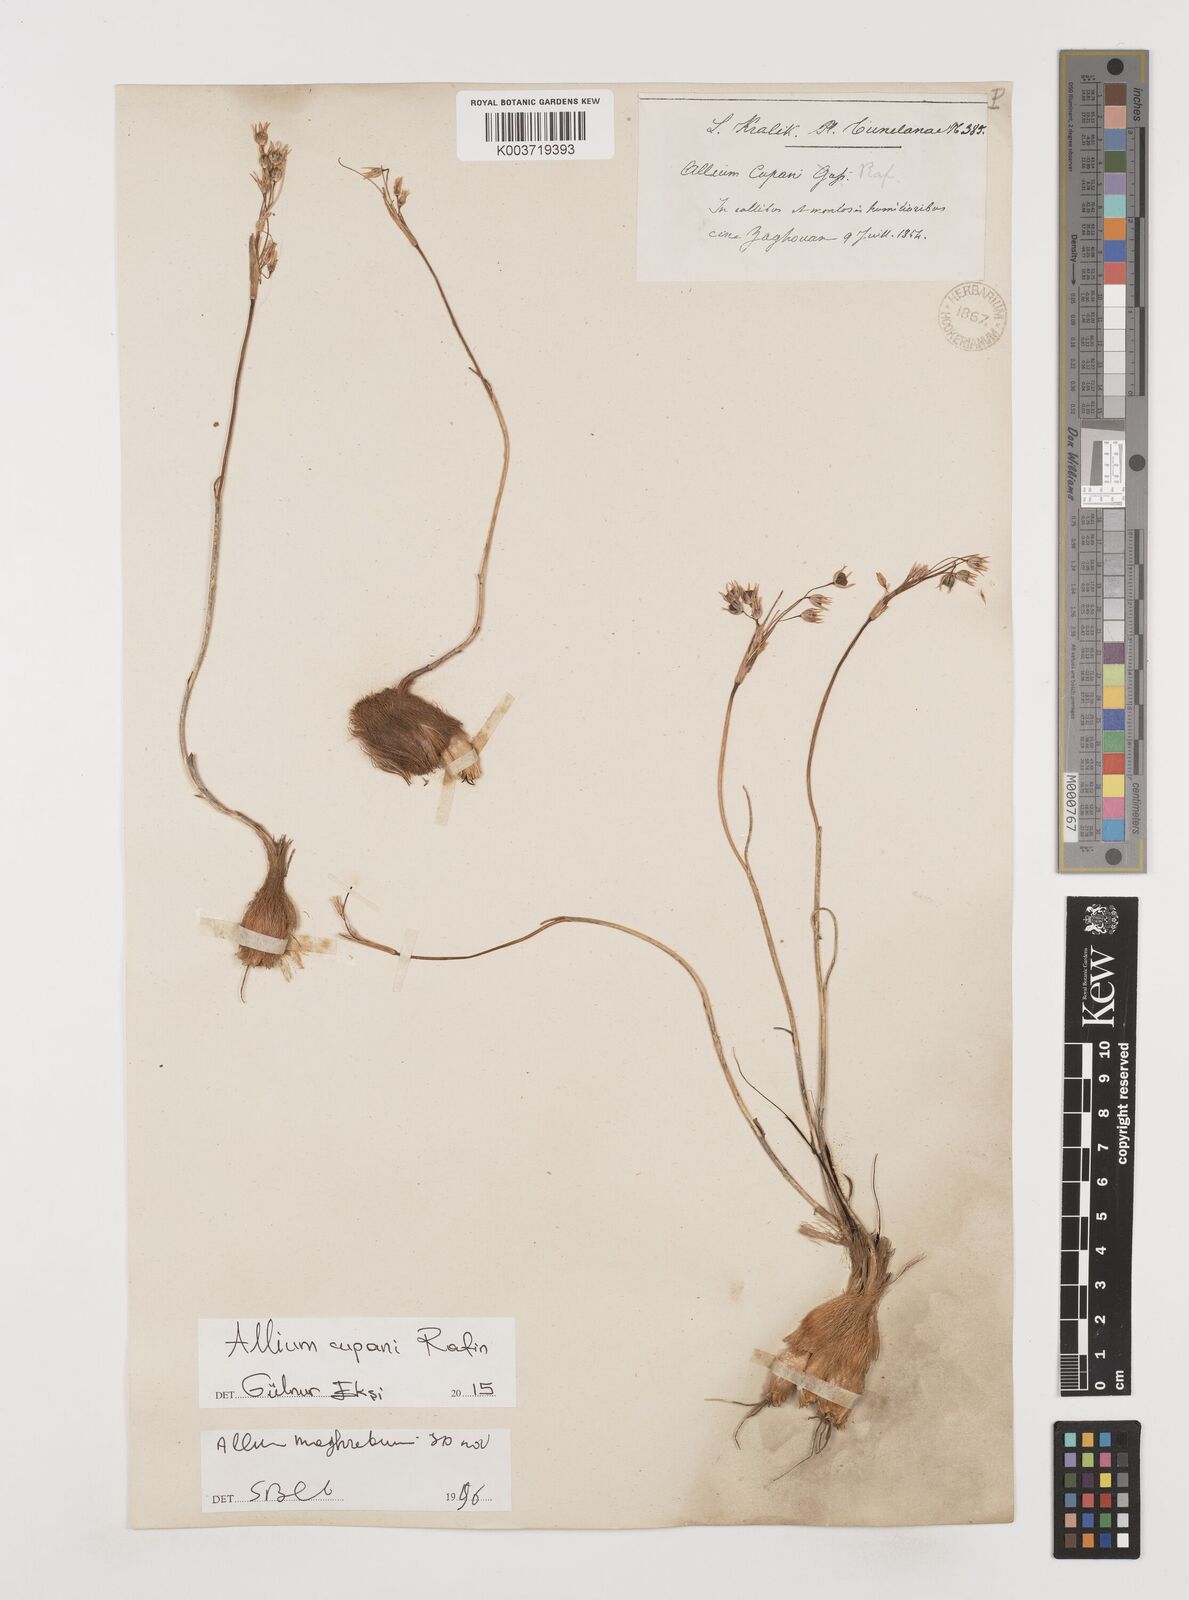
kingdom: Plantae
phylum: Tracheophyta
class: Liliopsida
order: Asparagales
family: Amaryllidaceae
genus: Allium
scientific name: Allium cupani
